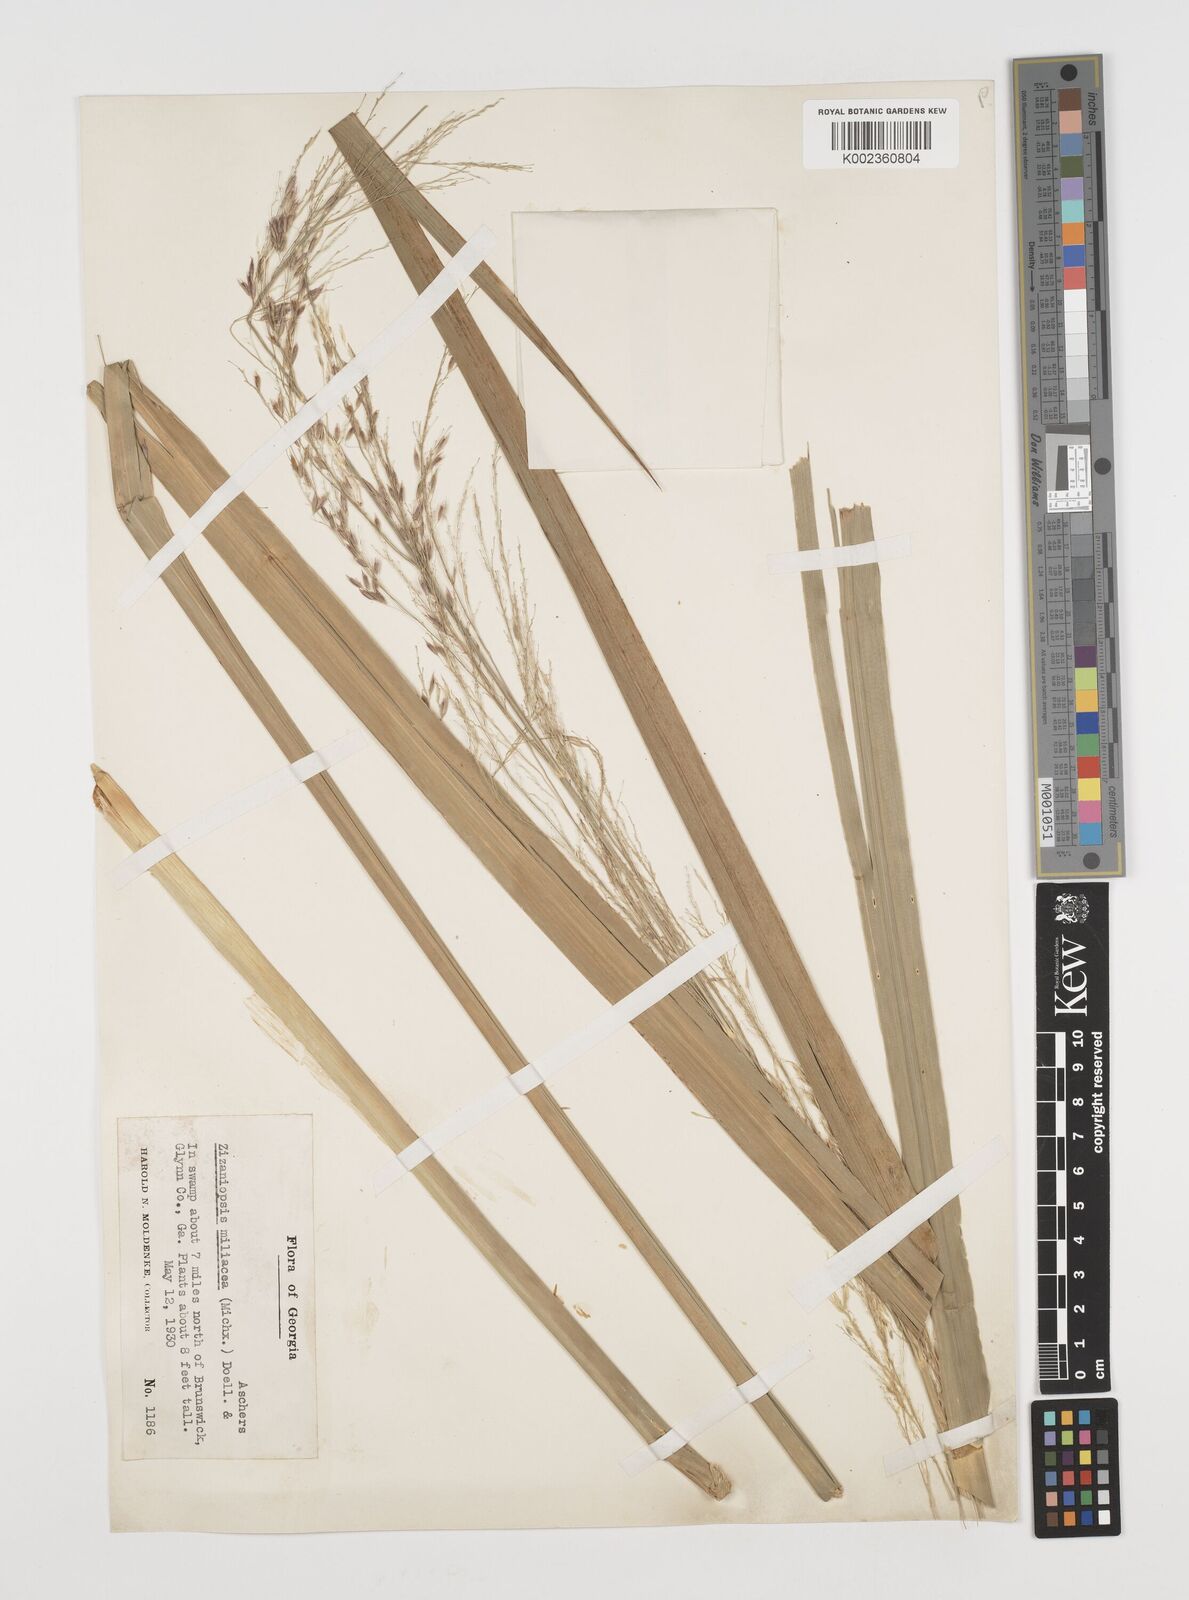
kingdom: Plantae
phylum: Tracheophyta
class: Liliopsida
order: Poales
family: Poaceae
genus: Zizaniopsis
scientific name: Zizaniopsis miliacea
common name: Giant-cutgrass
